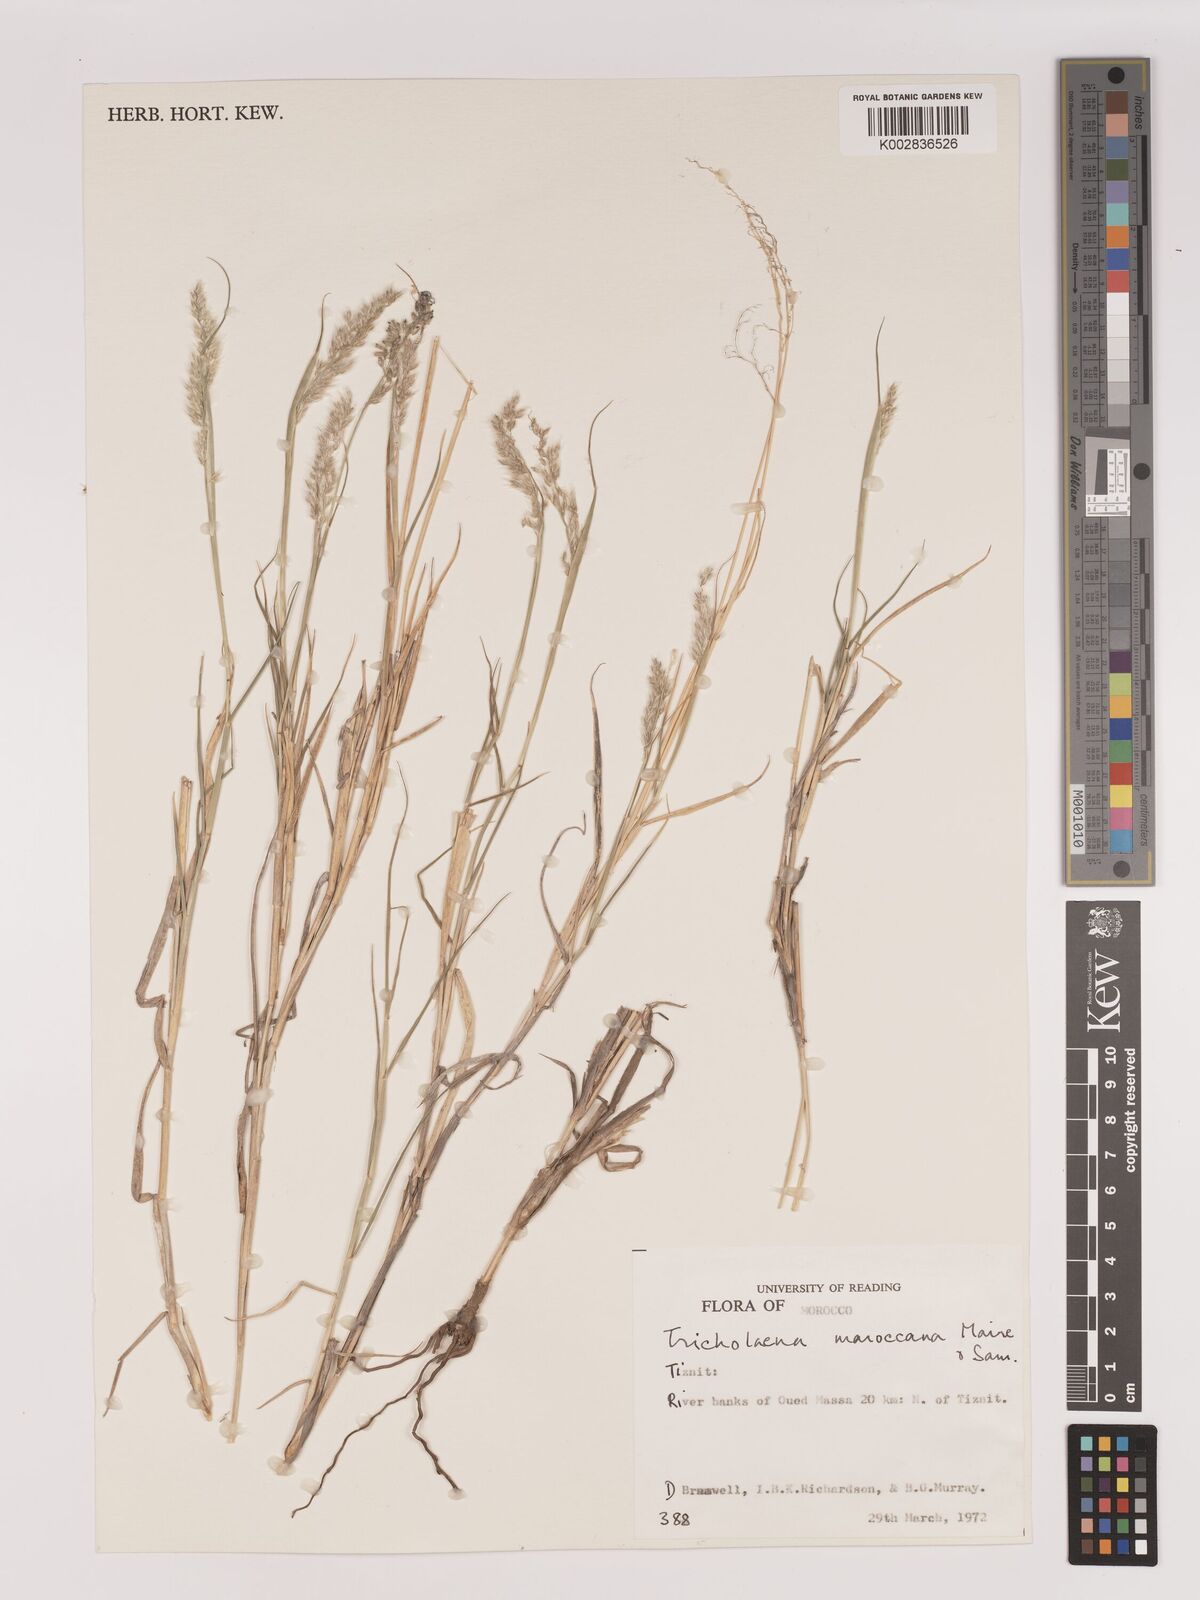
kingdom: Plantae
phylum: Tracheophyta
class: Liliopsida
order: Poales
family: Poaceae
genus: Tricholaena
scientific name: Tricholaena teneriffae
